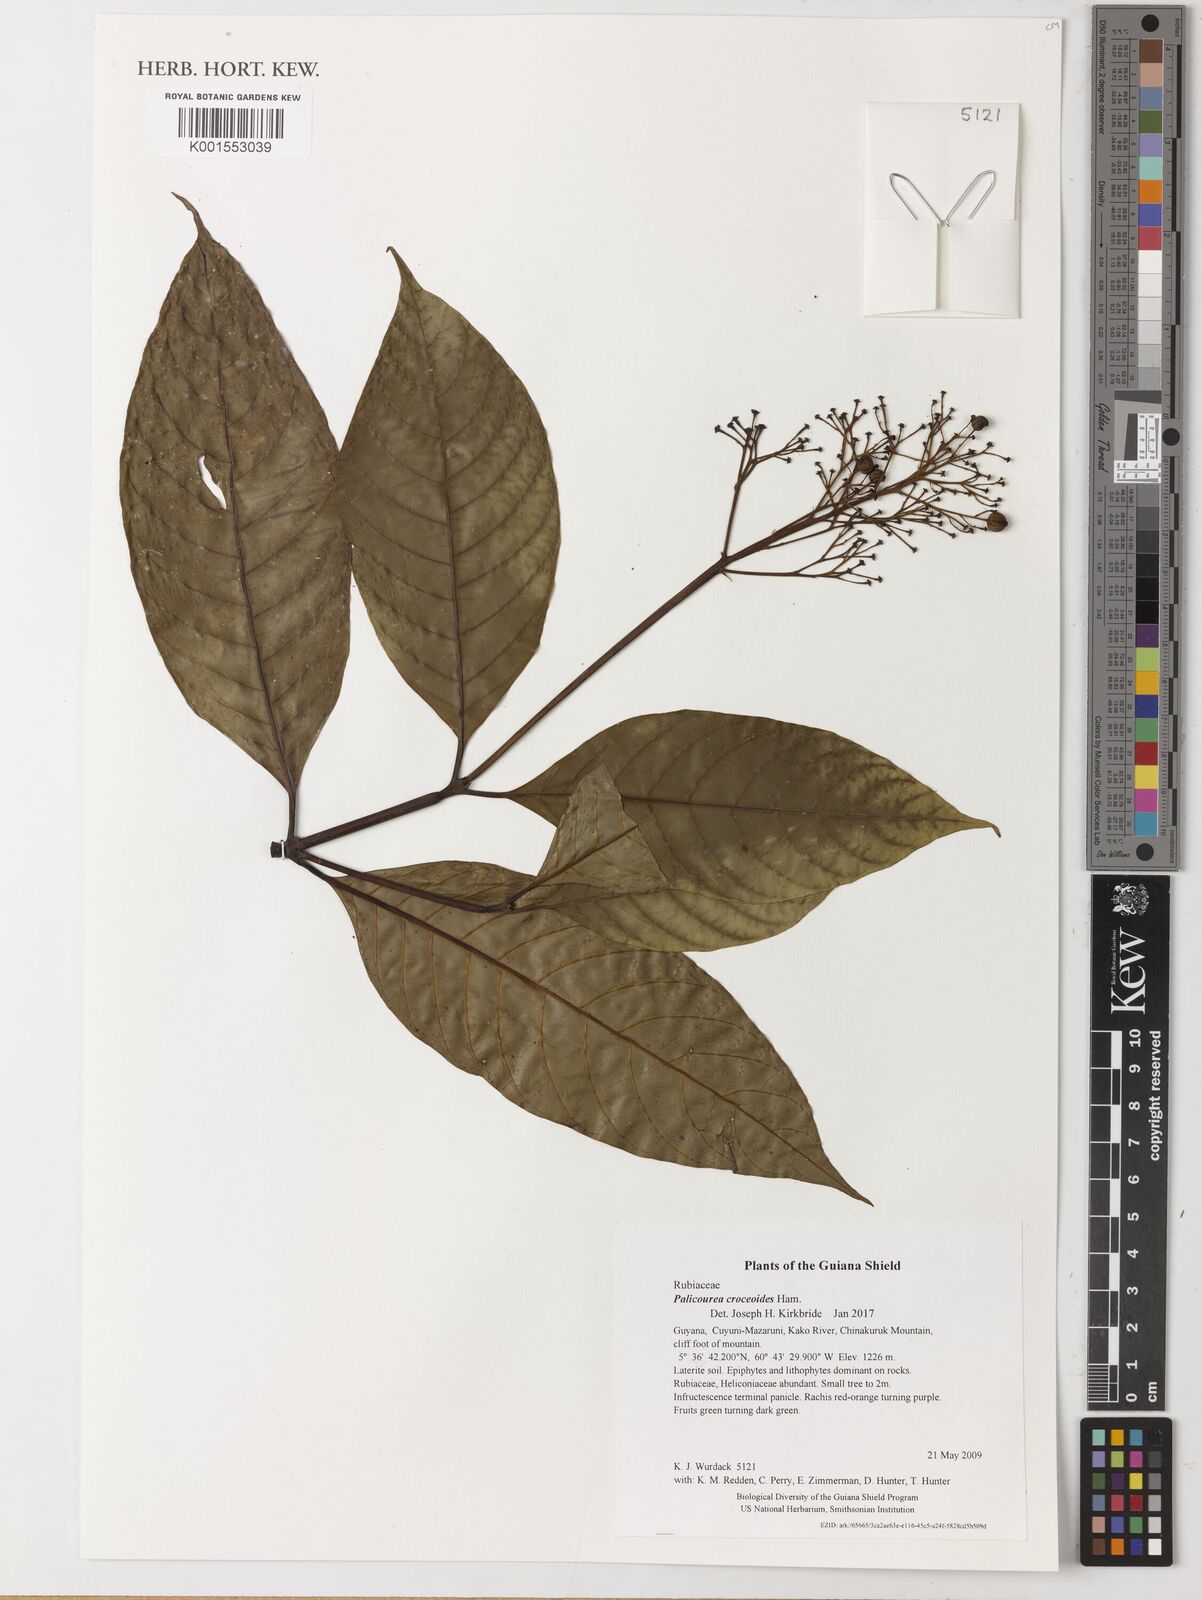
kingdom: Plantae
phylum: Tracheophyta
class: Magnoliopsida
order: Gentianales
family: Rubiaceae
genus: Palicourea
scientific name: Palicourea croceoides
